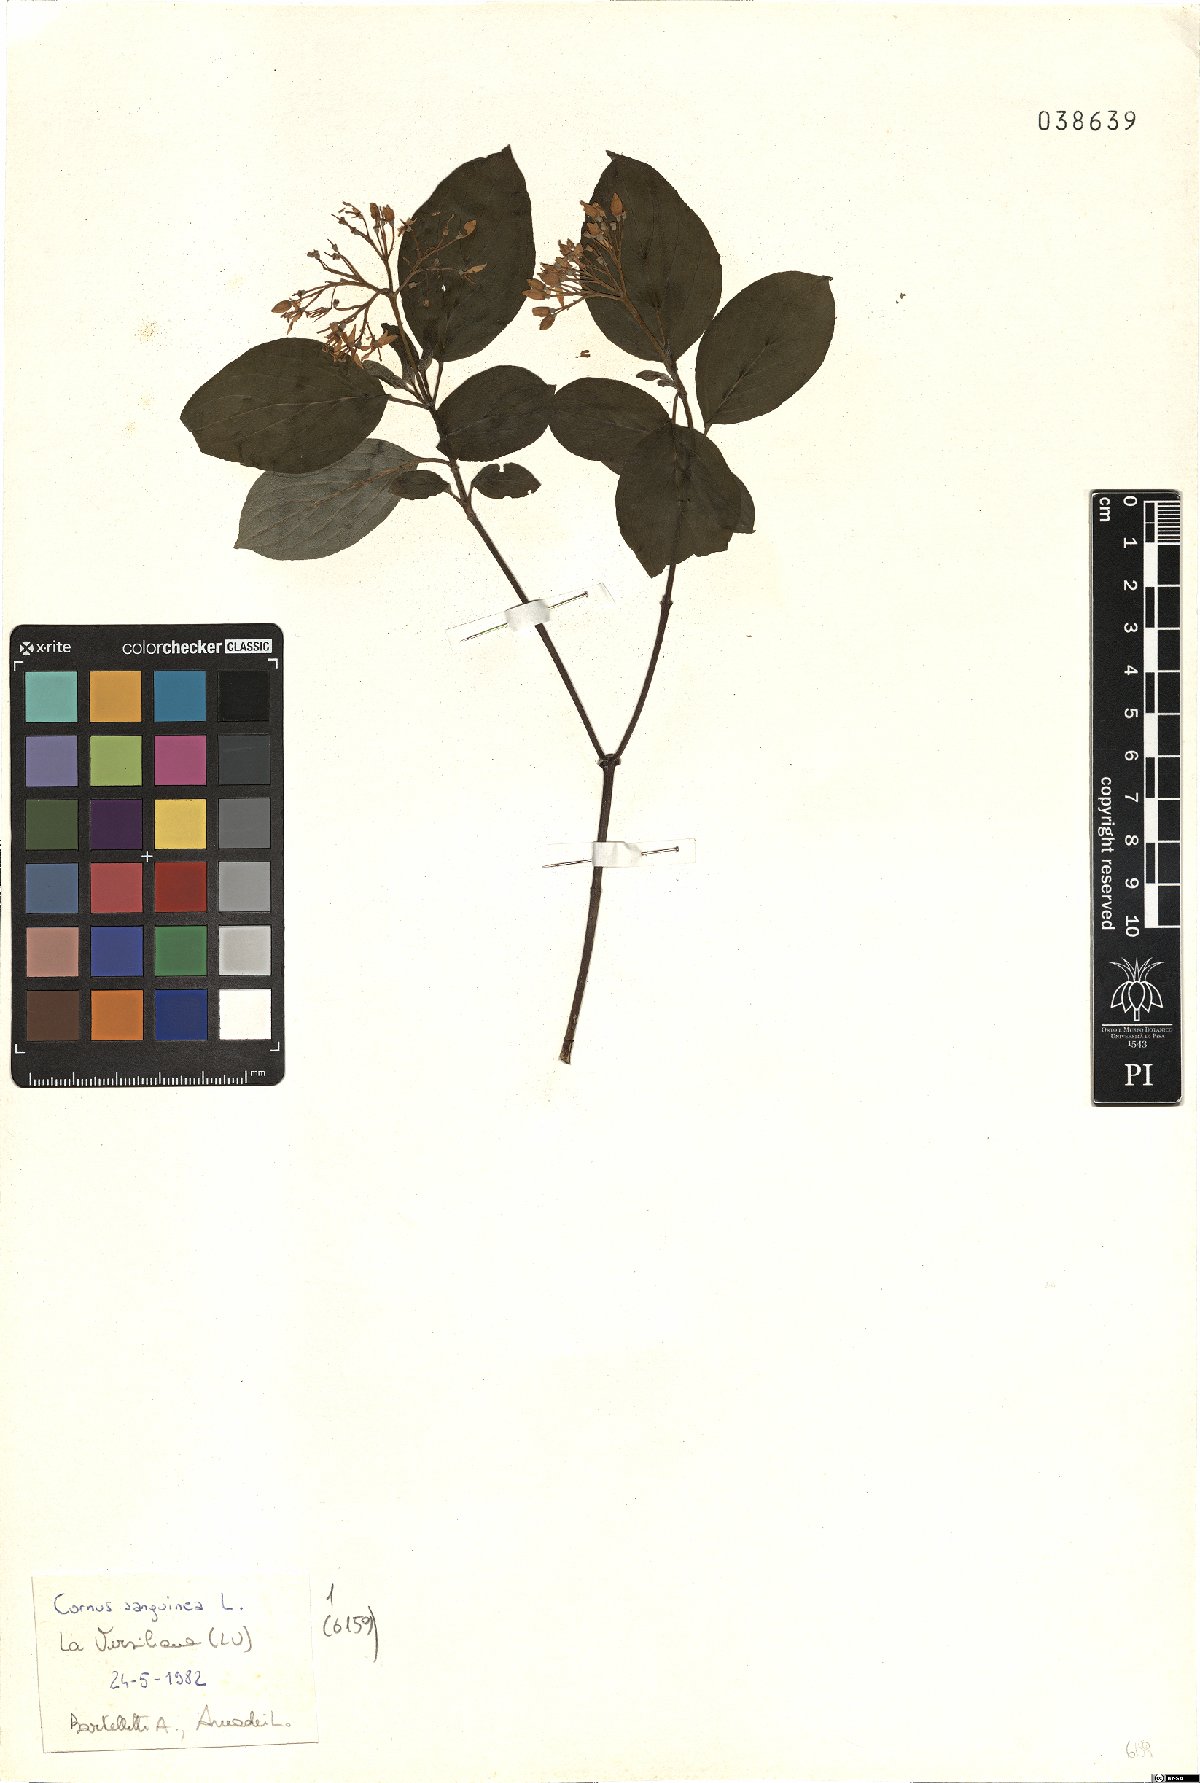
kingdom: Plantae
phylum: Tracheophyta
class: Magnoliopsida
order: Cornales
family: Cornaceae
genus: Cornus
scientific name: Cornus sanguinea
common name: Dogwood
